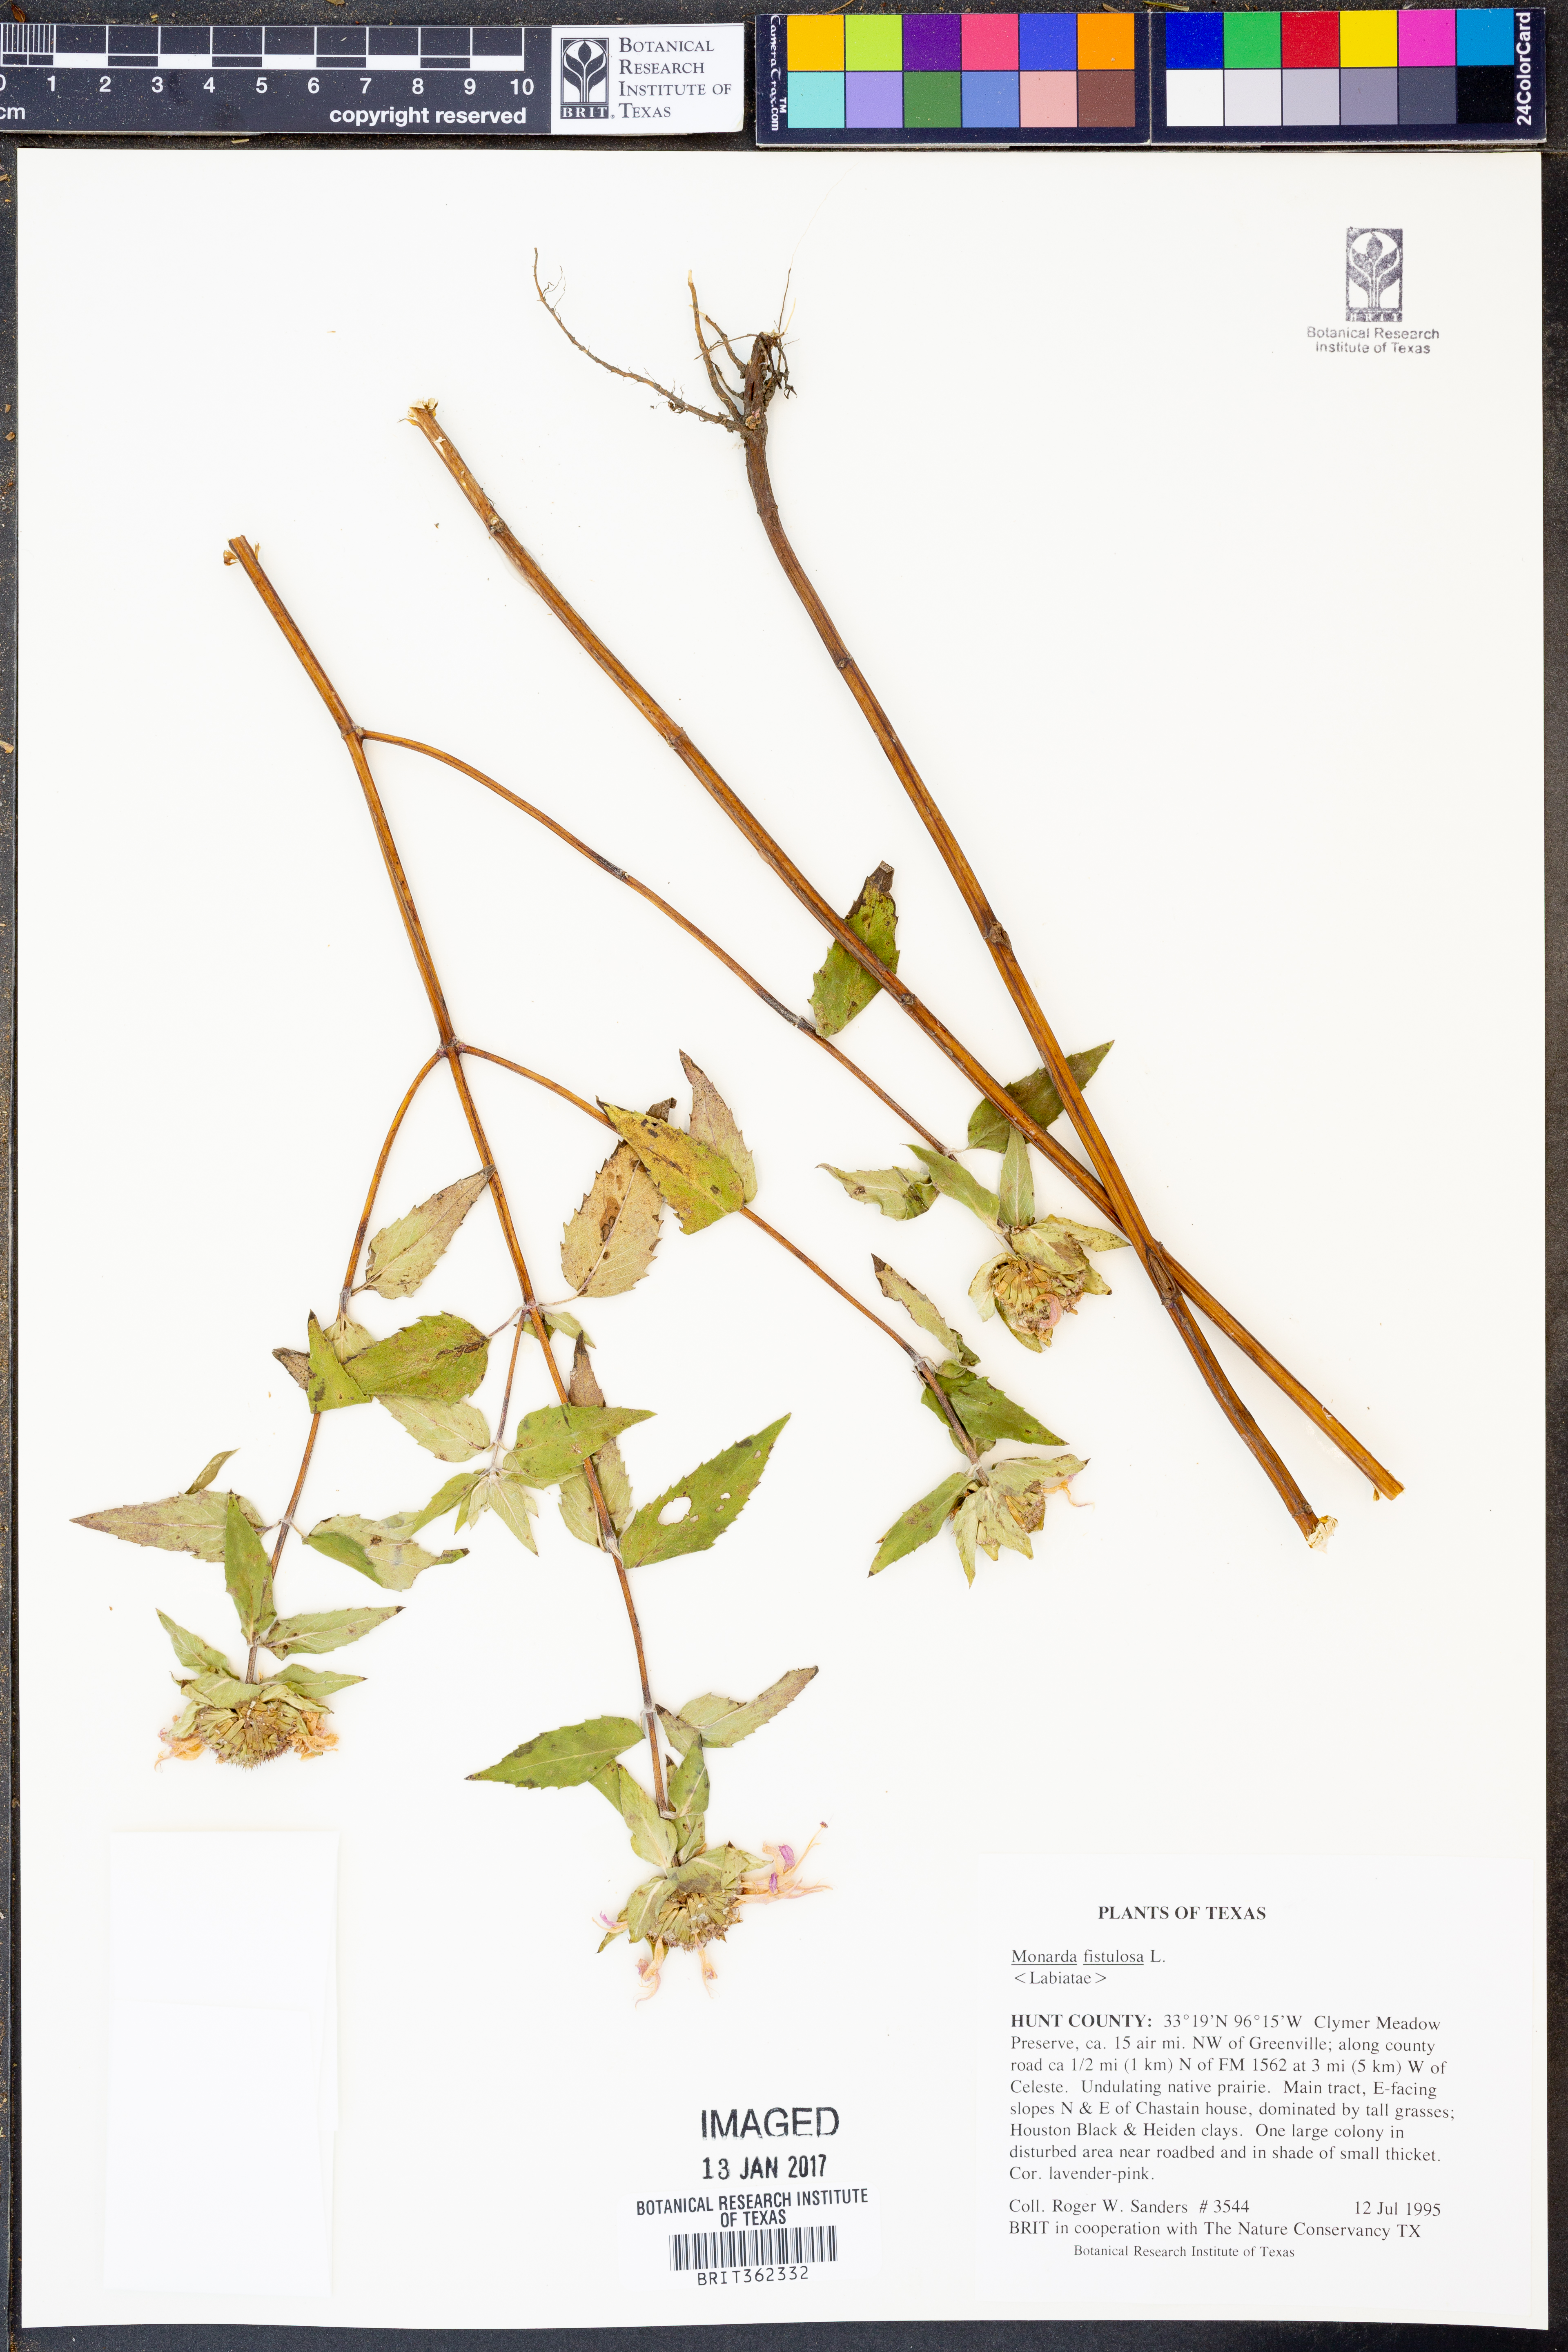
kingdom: Plantae
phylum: Tracheophyta
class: Magnoliopsida
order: Lamiales
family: Lamiaceae
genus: Monarda
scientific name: Monarda fistulosa
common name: Purple beebalm
